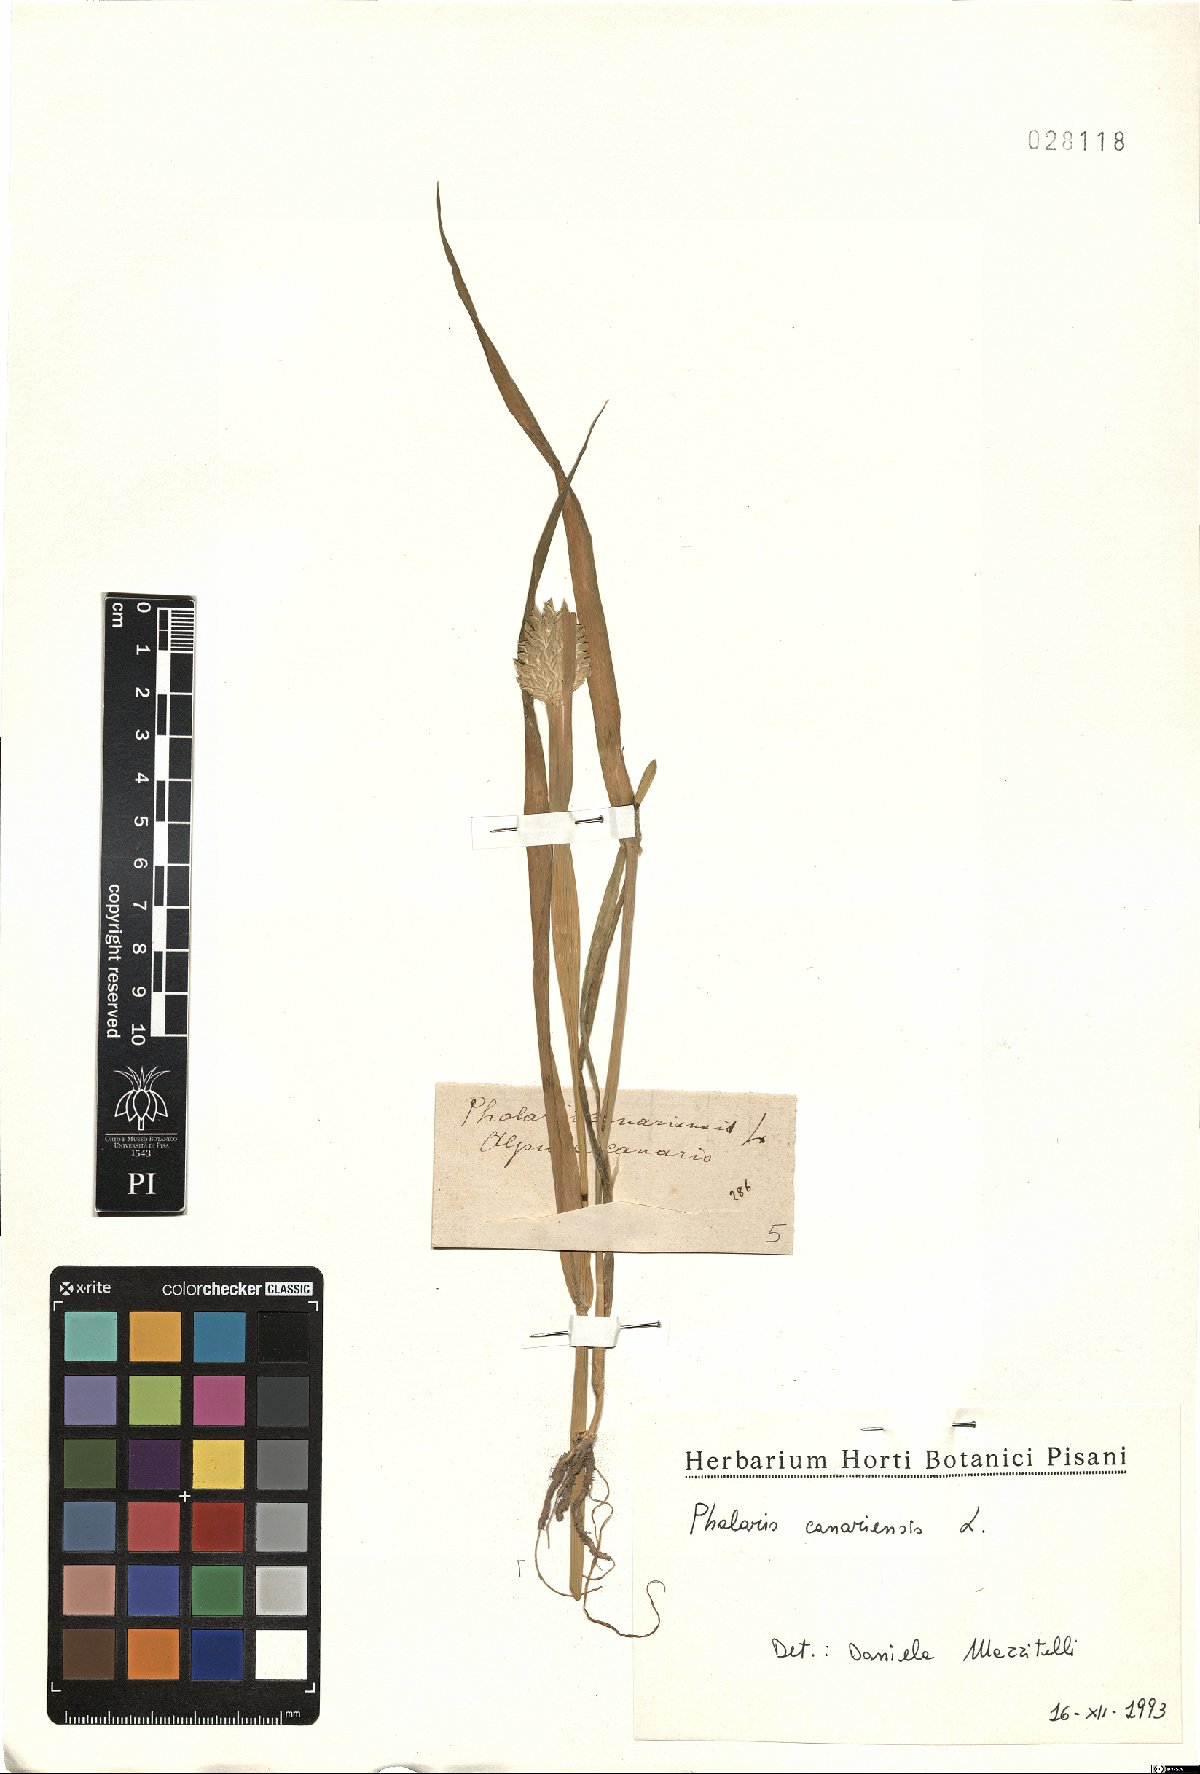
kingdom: Plantae
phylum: Tracheophyta
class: Liliopsida
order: Poales
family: Poaceae
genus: Phalaris
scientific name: Phalaris canariensis
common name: Annual canarygrass
